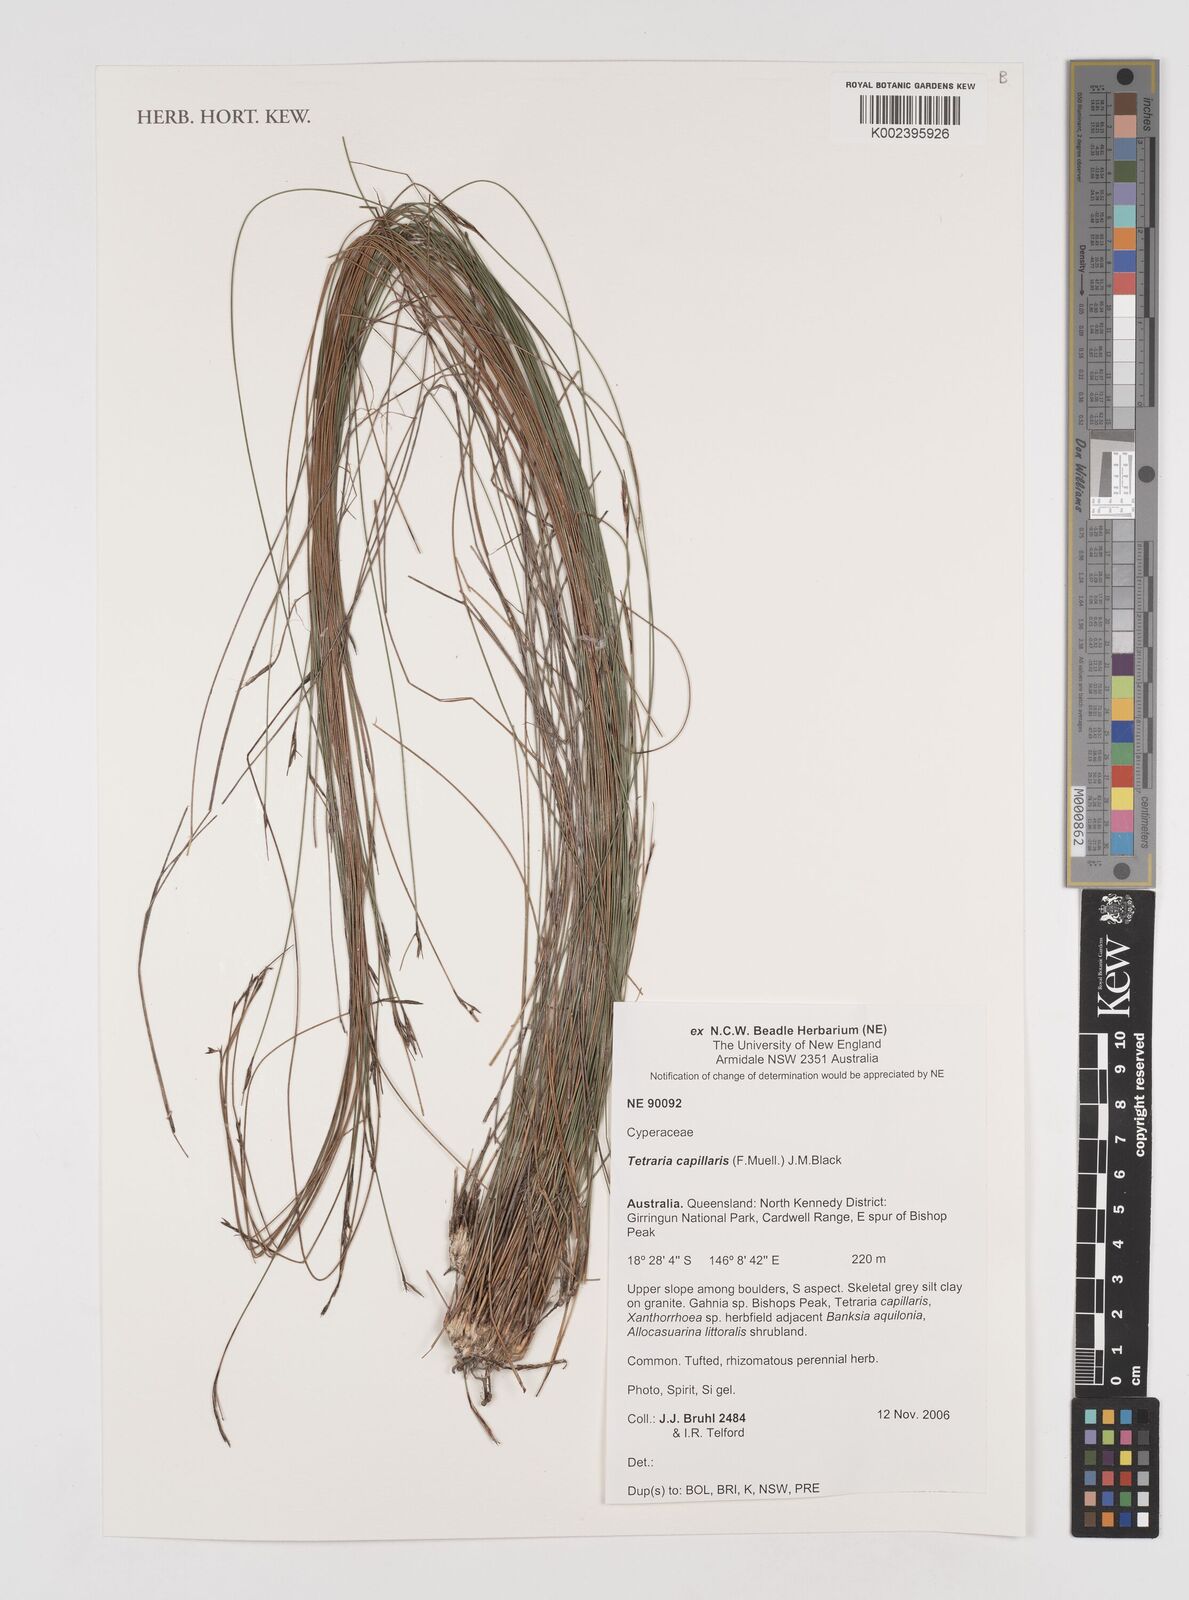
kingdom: Plantae
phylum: Tracheophyta
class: Liliopsida
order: Poales
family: Cyperaceae
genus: Tetraria
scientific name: Tetraria capillaris
